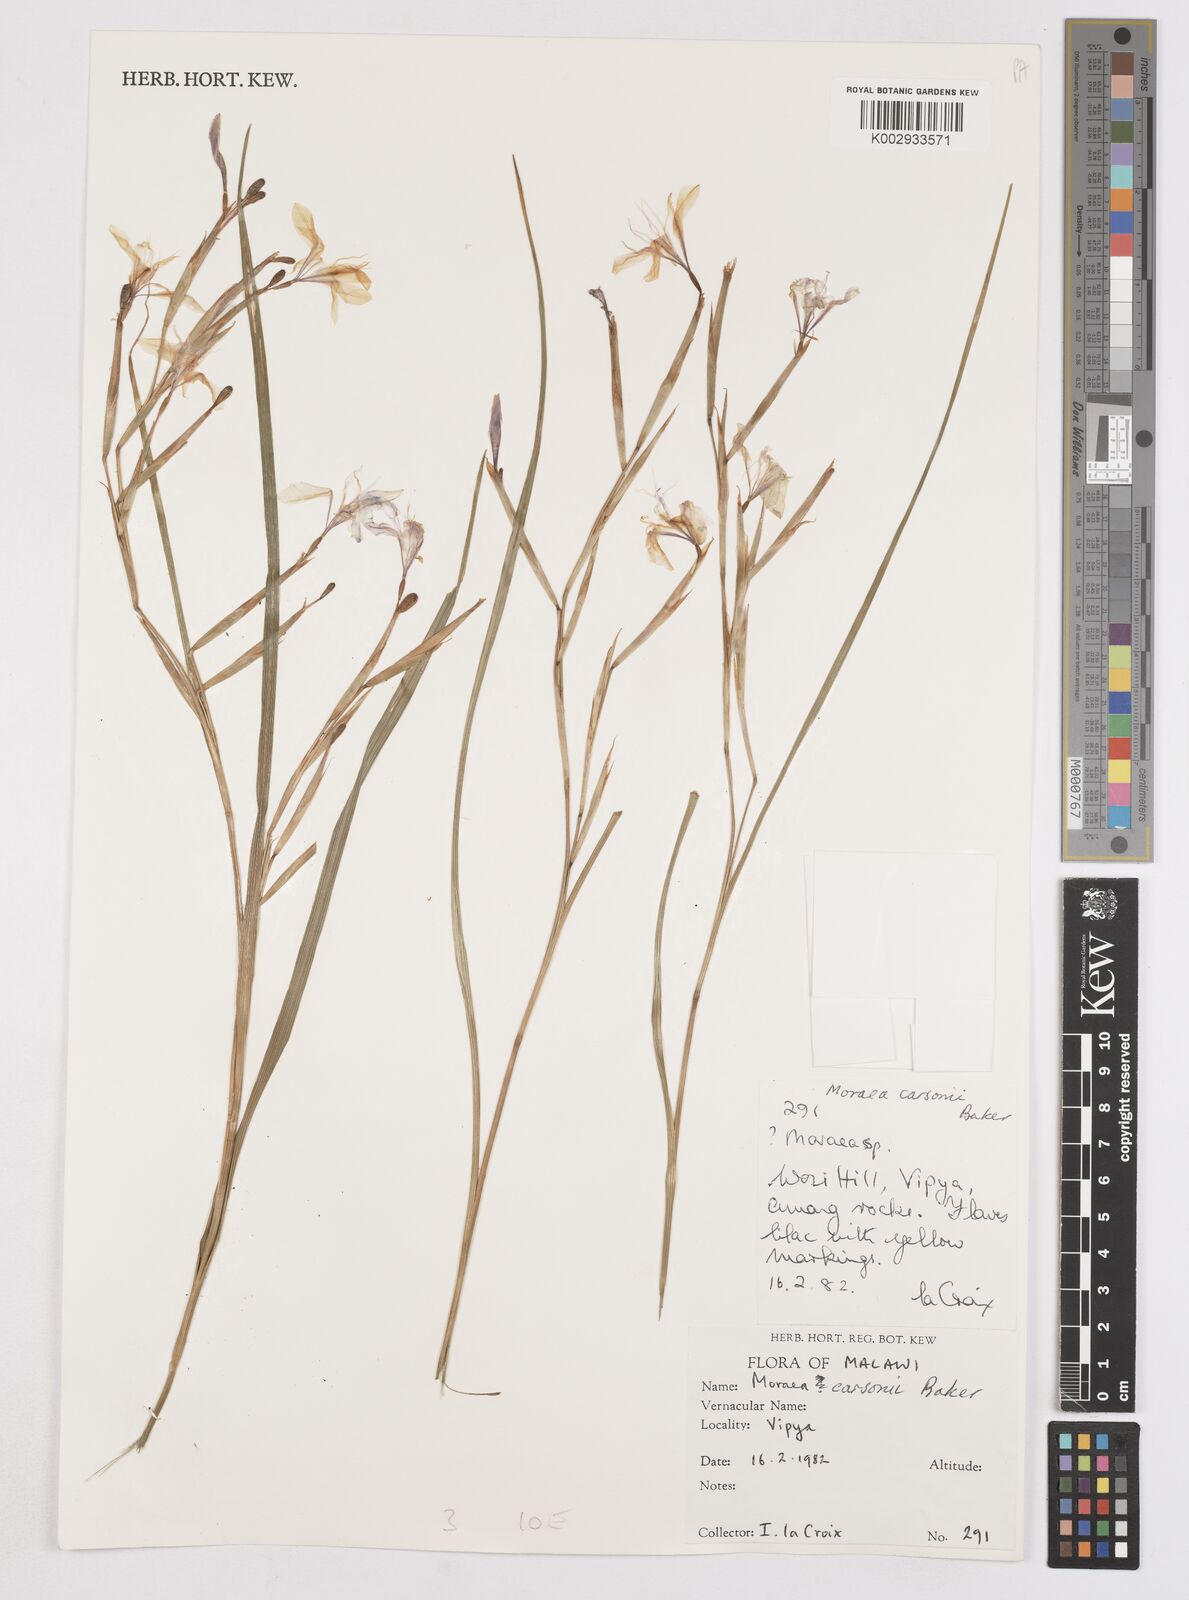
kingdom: Plantae
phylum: Tracheophyta
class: Liliopsida
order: Asparagales
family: Iridaceae
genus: Moraea
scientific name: Moraea carsonii
